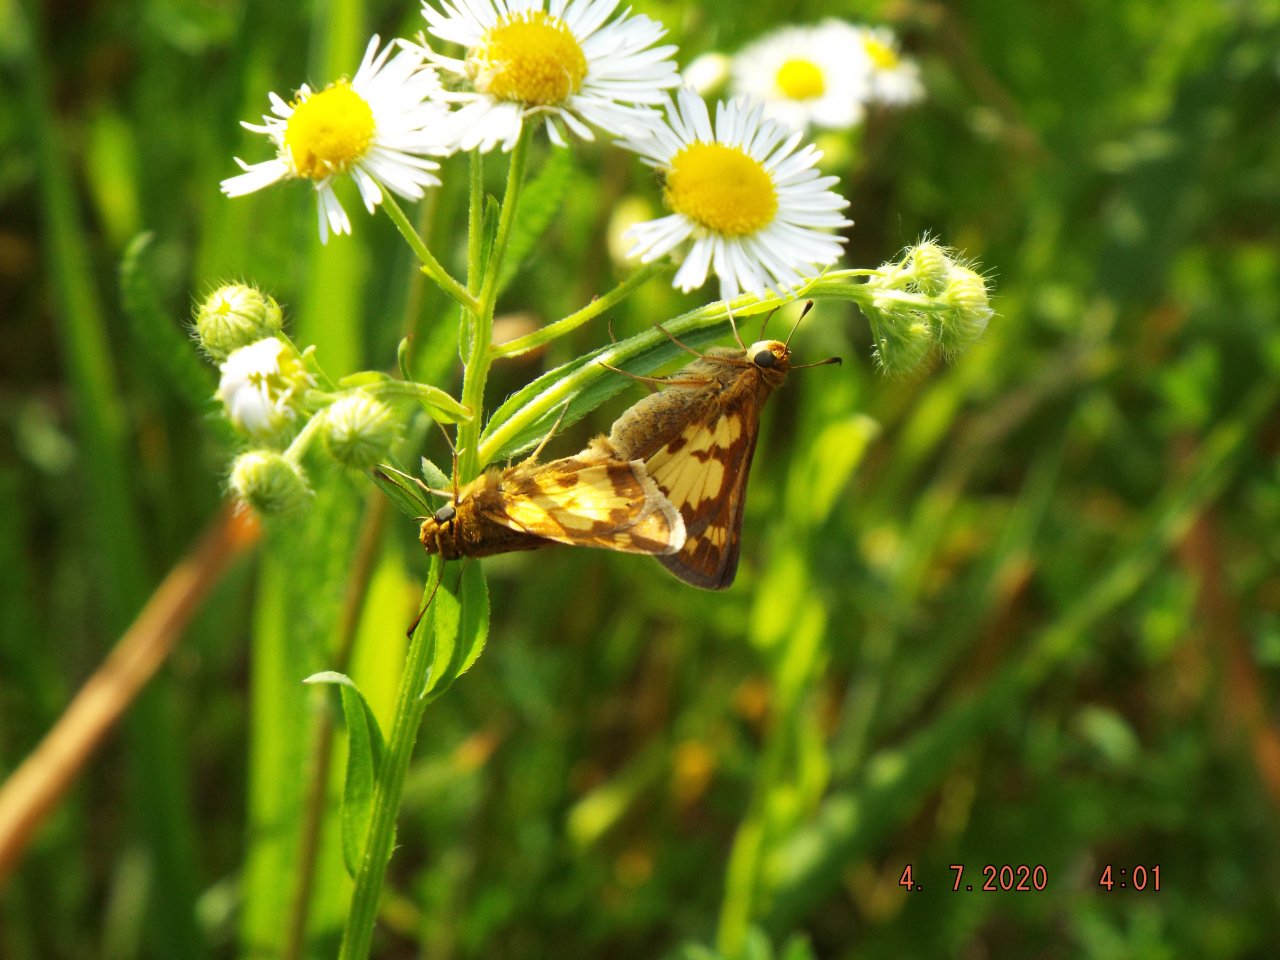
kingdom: Animalia
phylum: Arthropoda
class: Insecta
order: Lepidoptera
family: Hesperiidae
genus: Polites
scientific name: Polites coras
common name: Peck's Skipper
